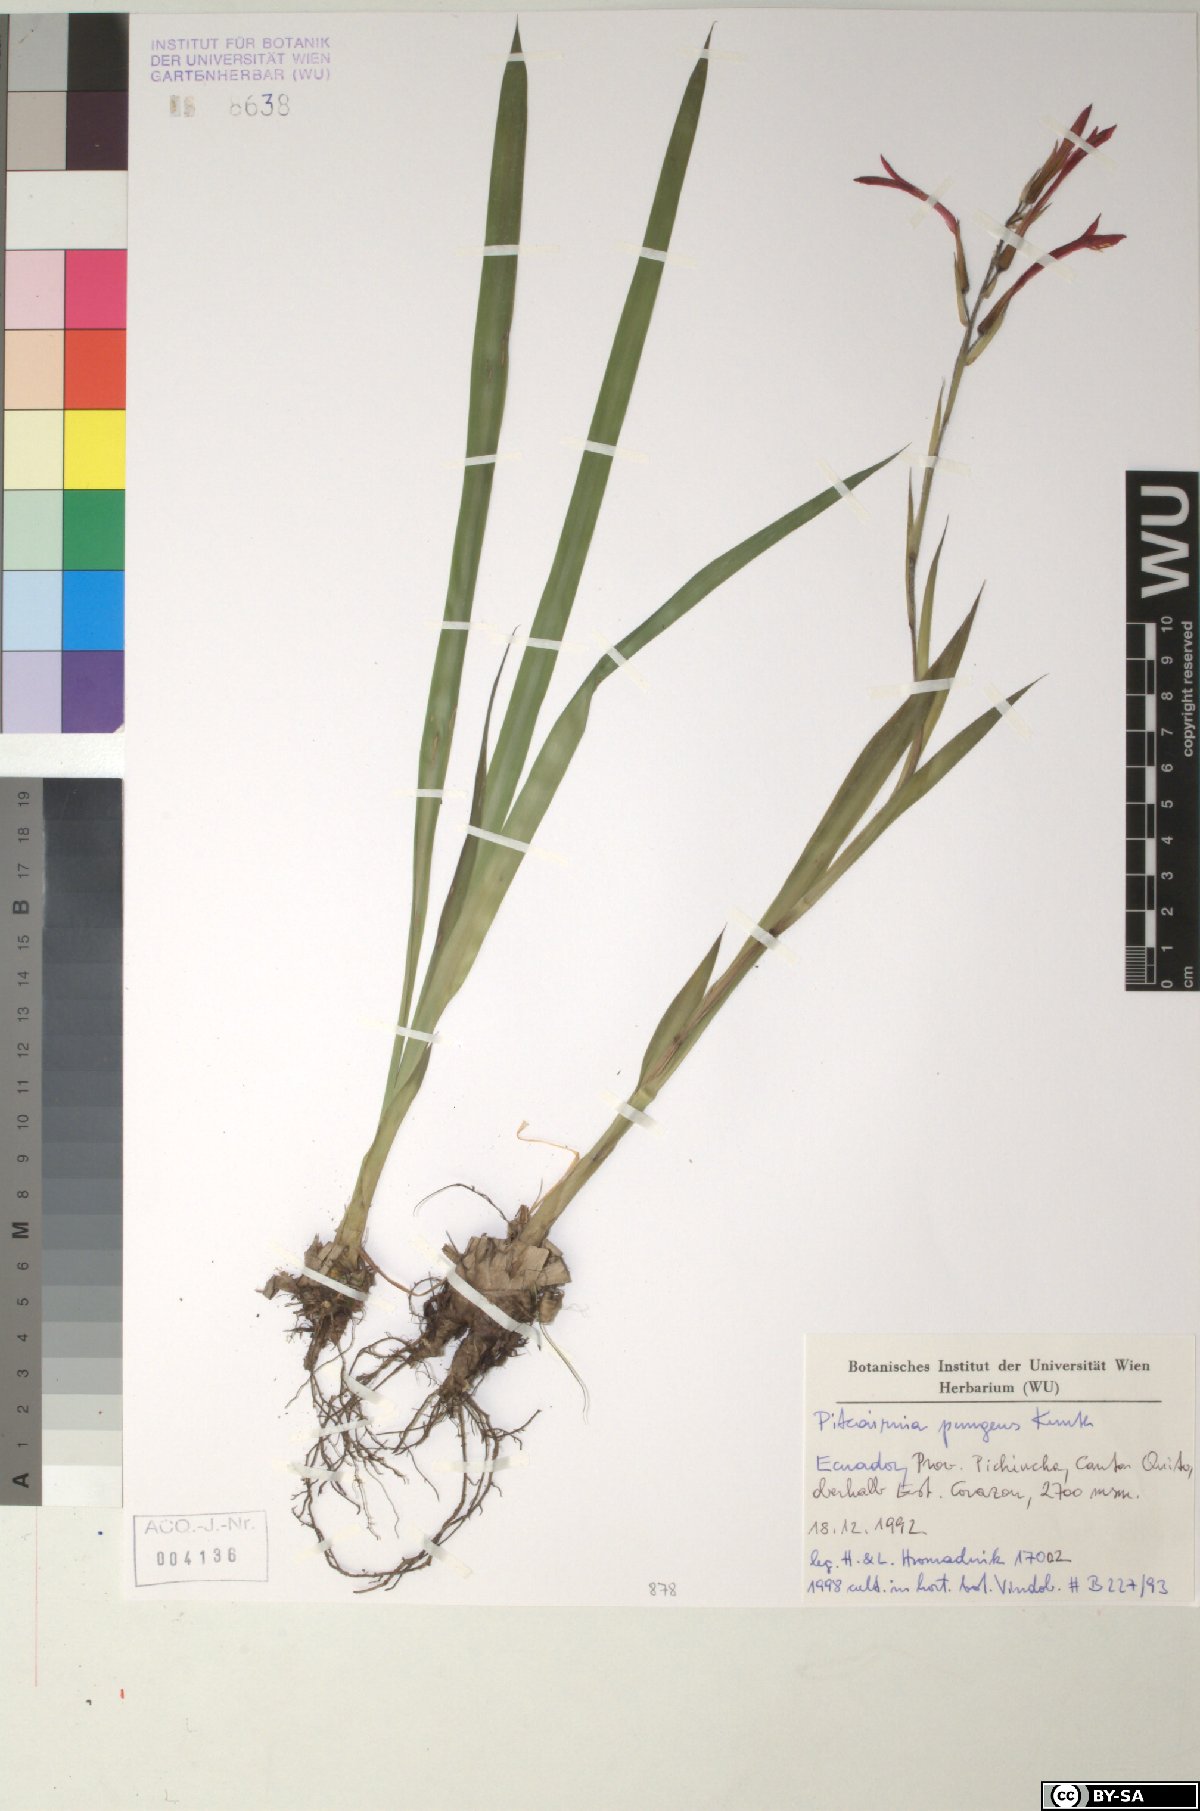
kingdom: Plantae
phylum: Tracheophyta
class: Liliopsida
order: Poales
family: Bromeliaceae
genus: Pitcairnia
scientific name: Pitcairnia pungens
